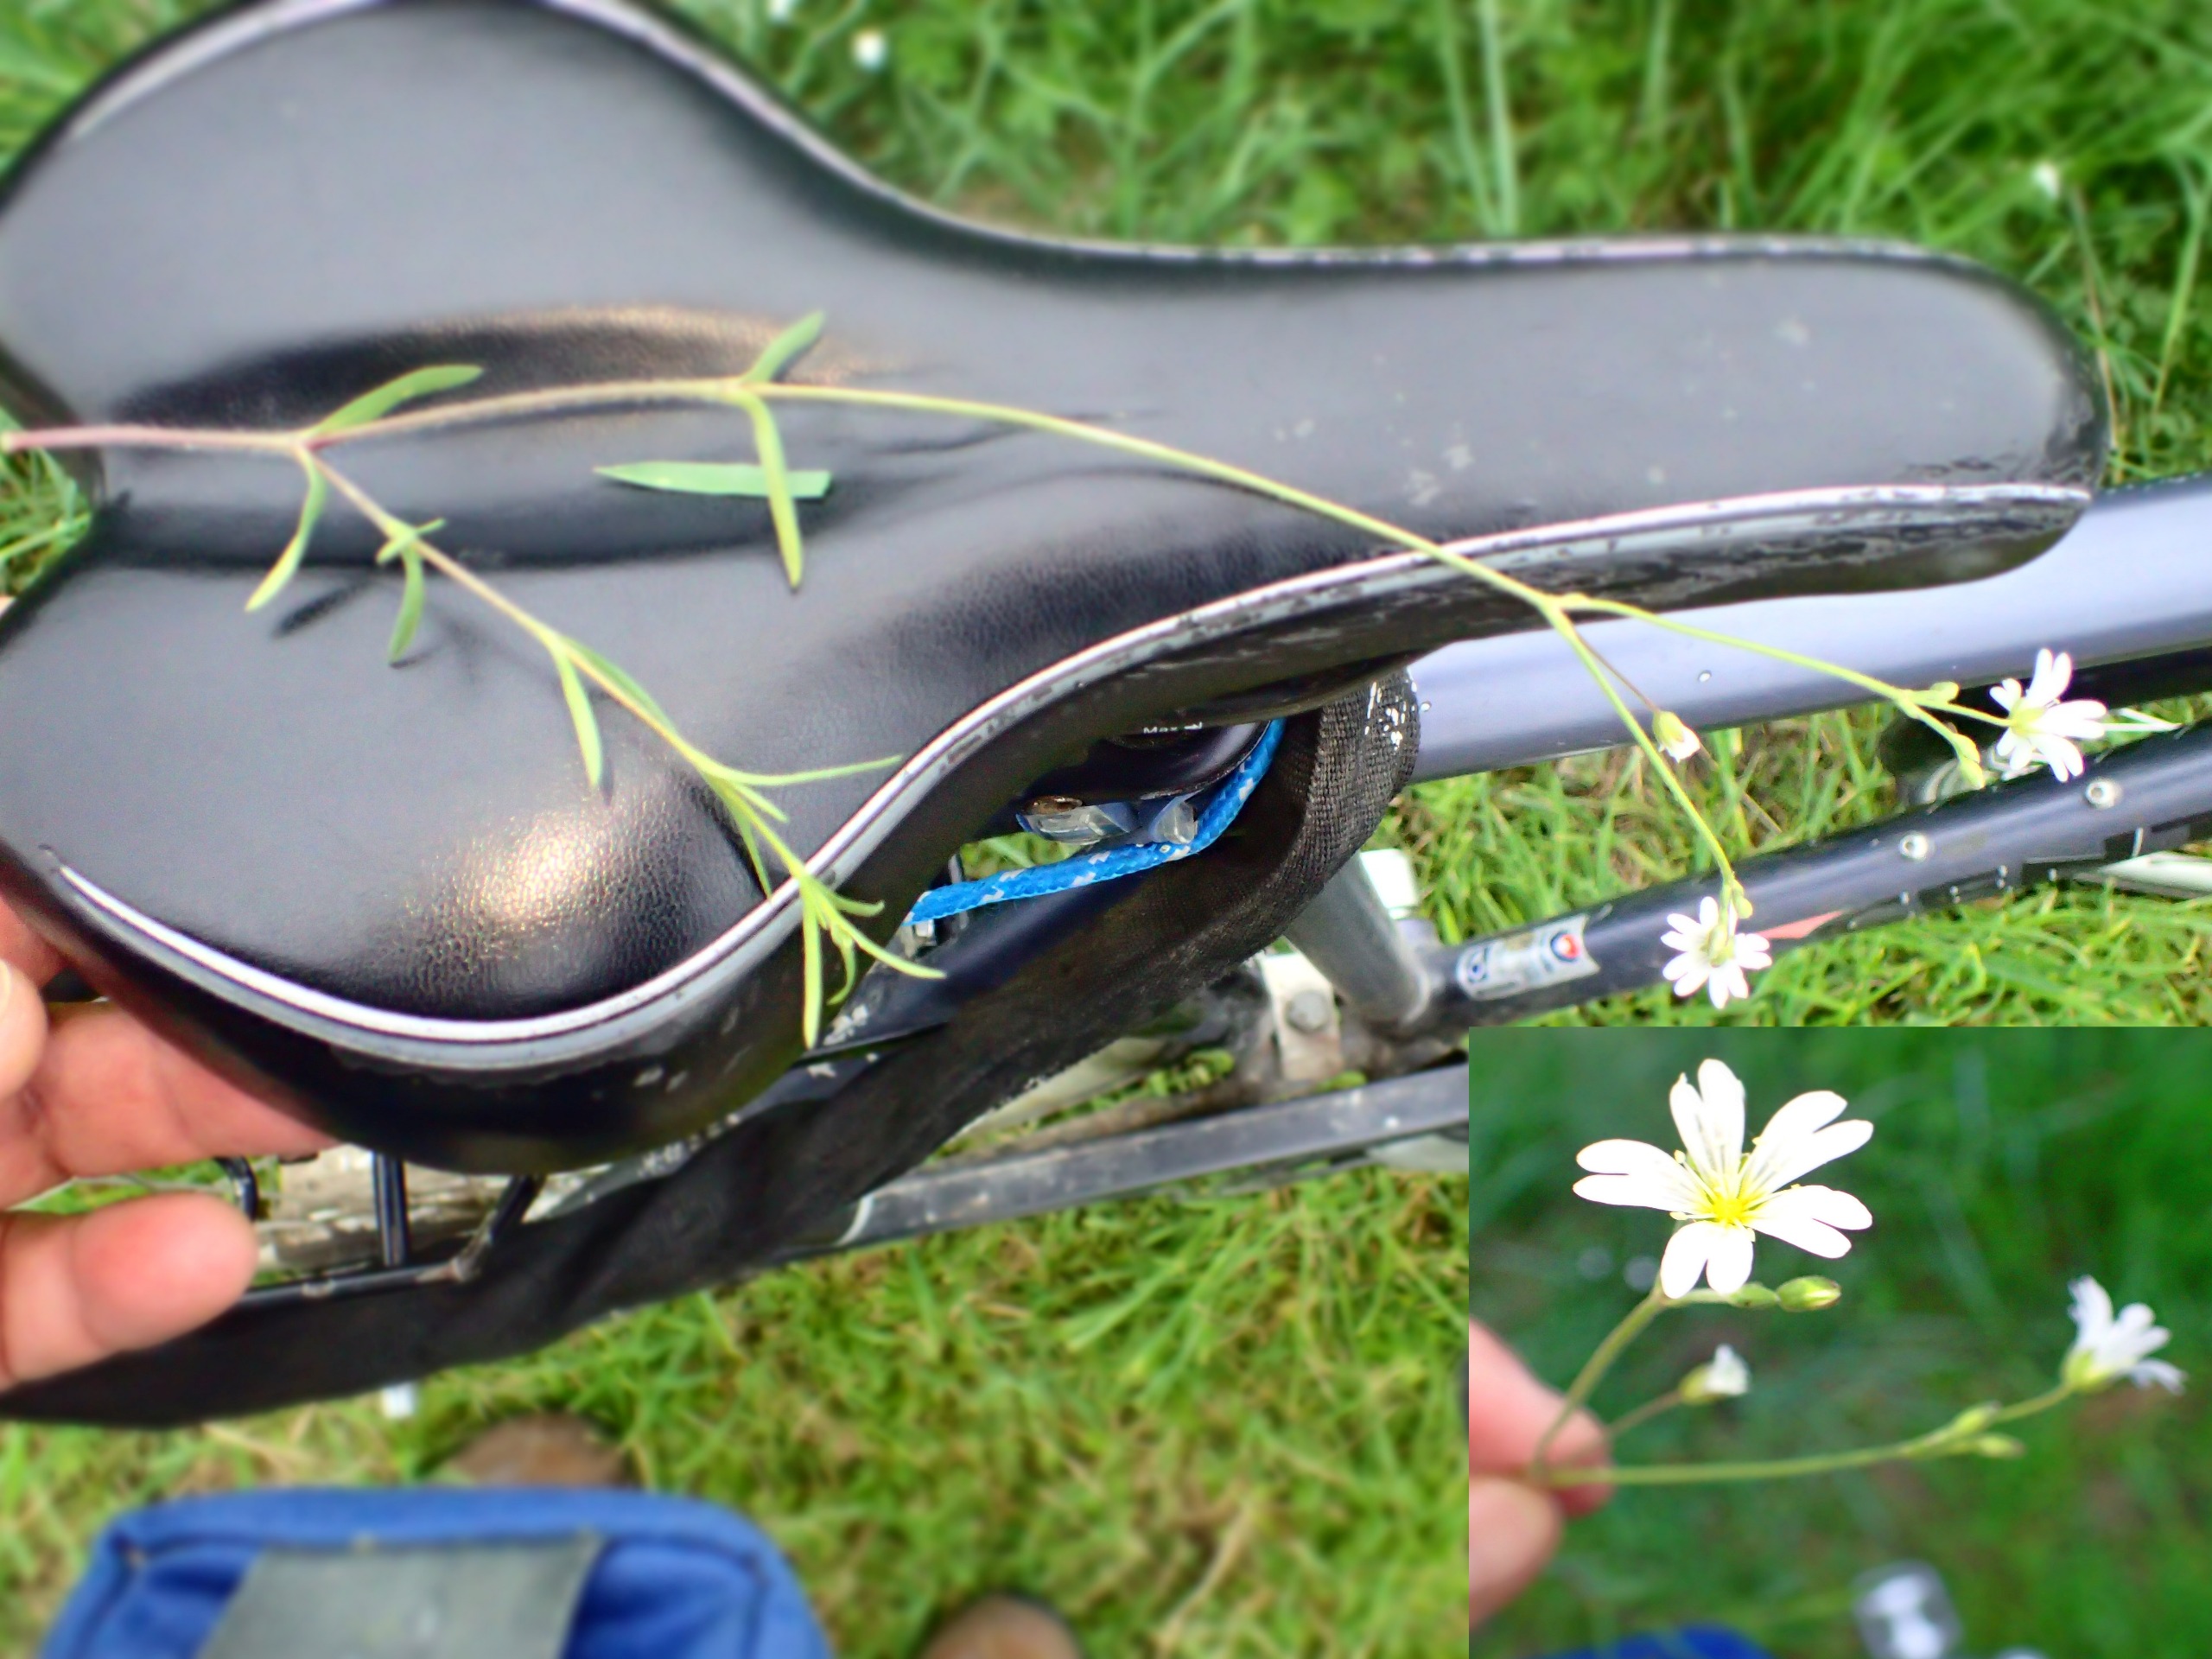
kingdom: Plantae
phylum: Tracheophyta
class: Magnoliopsida
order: Caryophyllales
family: Caryophyllaceae
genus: Cerastium
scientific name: Cerastium arvense
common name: Storblomstret hønsetarm
